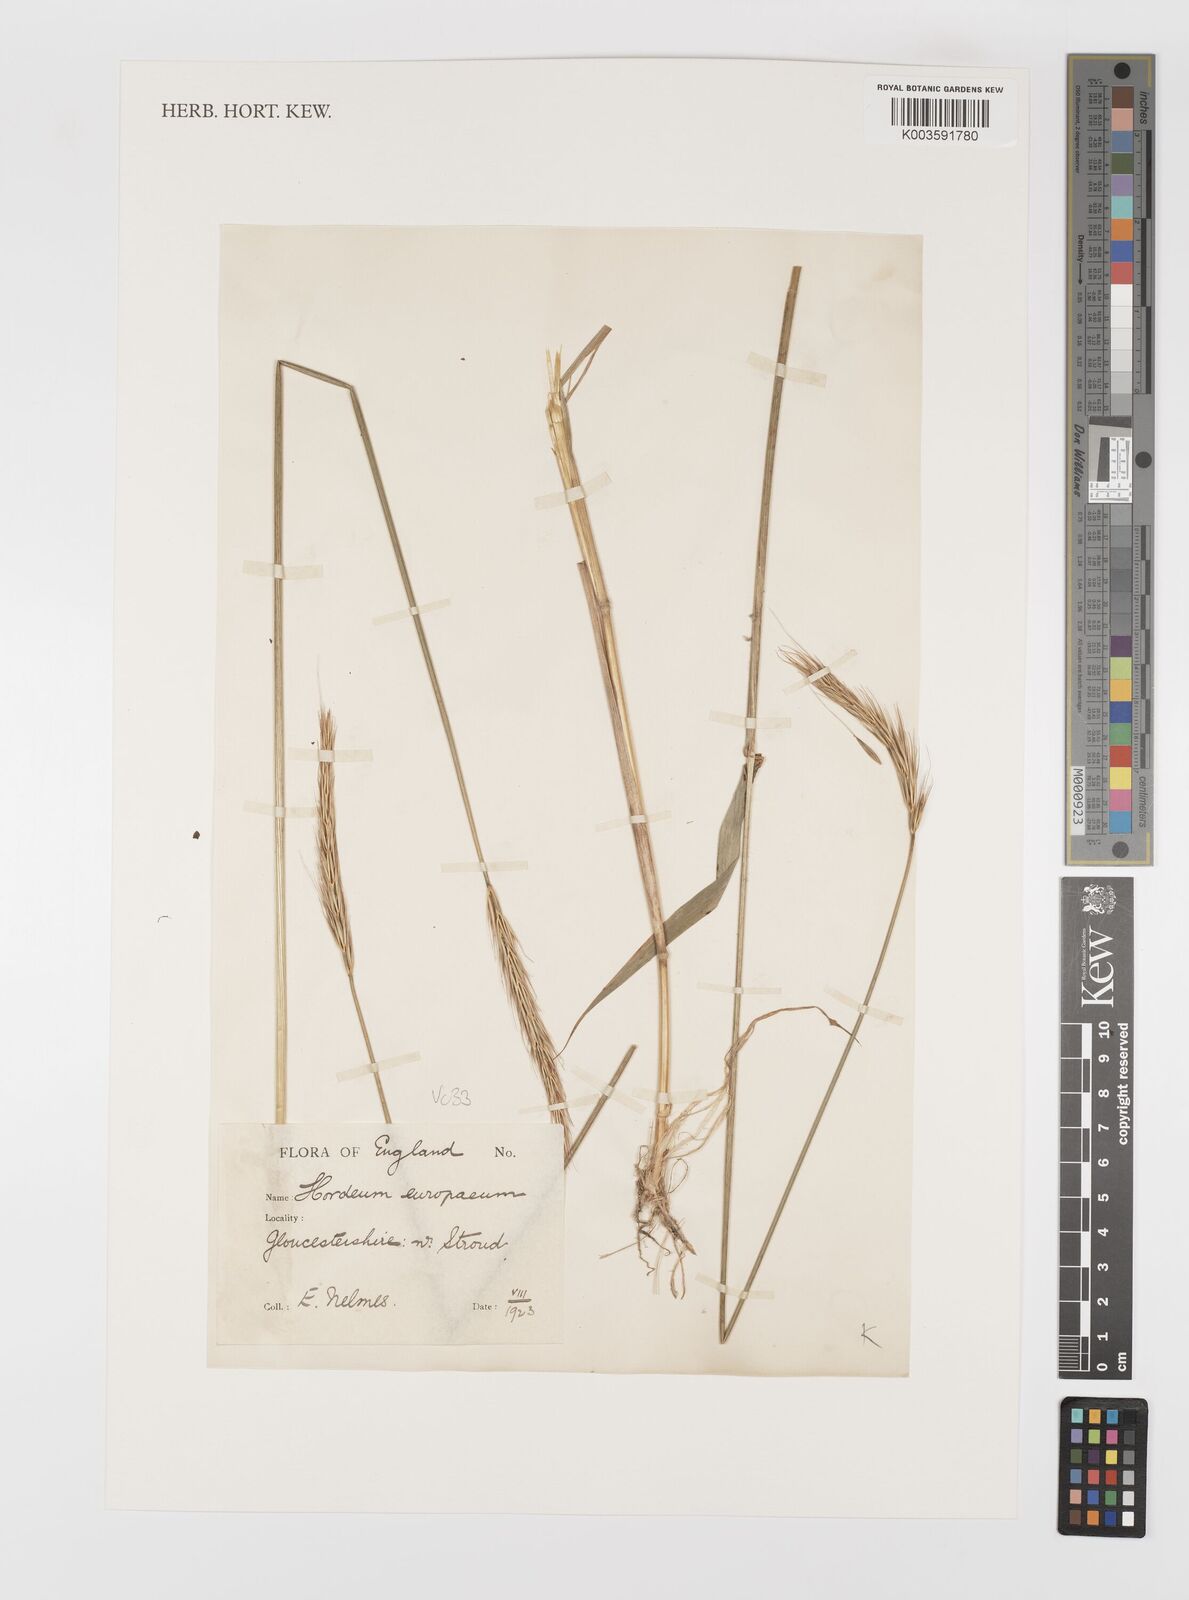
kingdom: Plantae
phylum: Tracheophyta
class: Liliopsida
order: Poales
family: Poaceae
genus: Hordelymus
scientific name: Hordelymus europaeus
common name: Wood-barley
